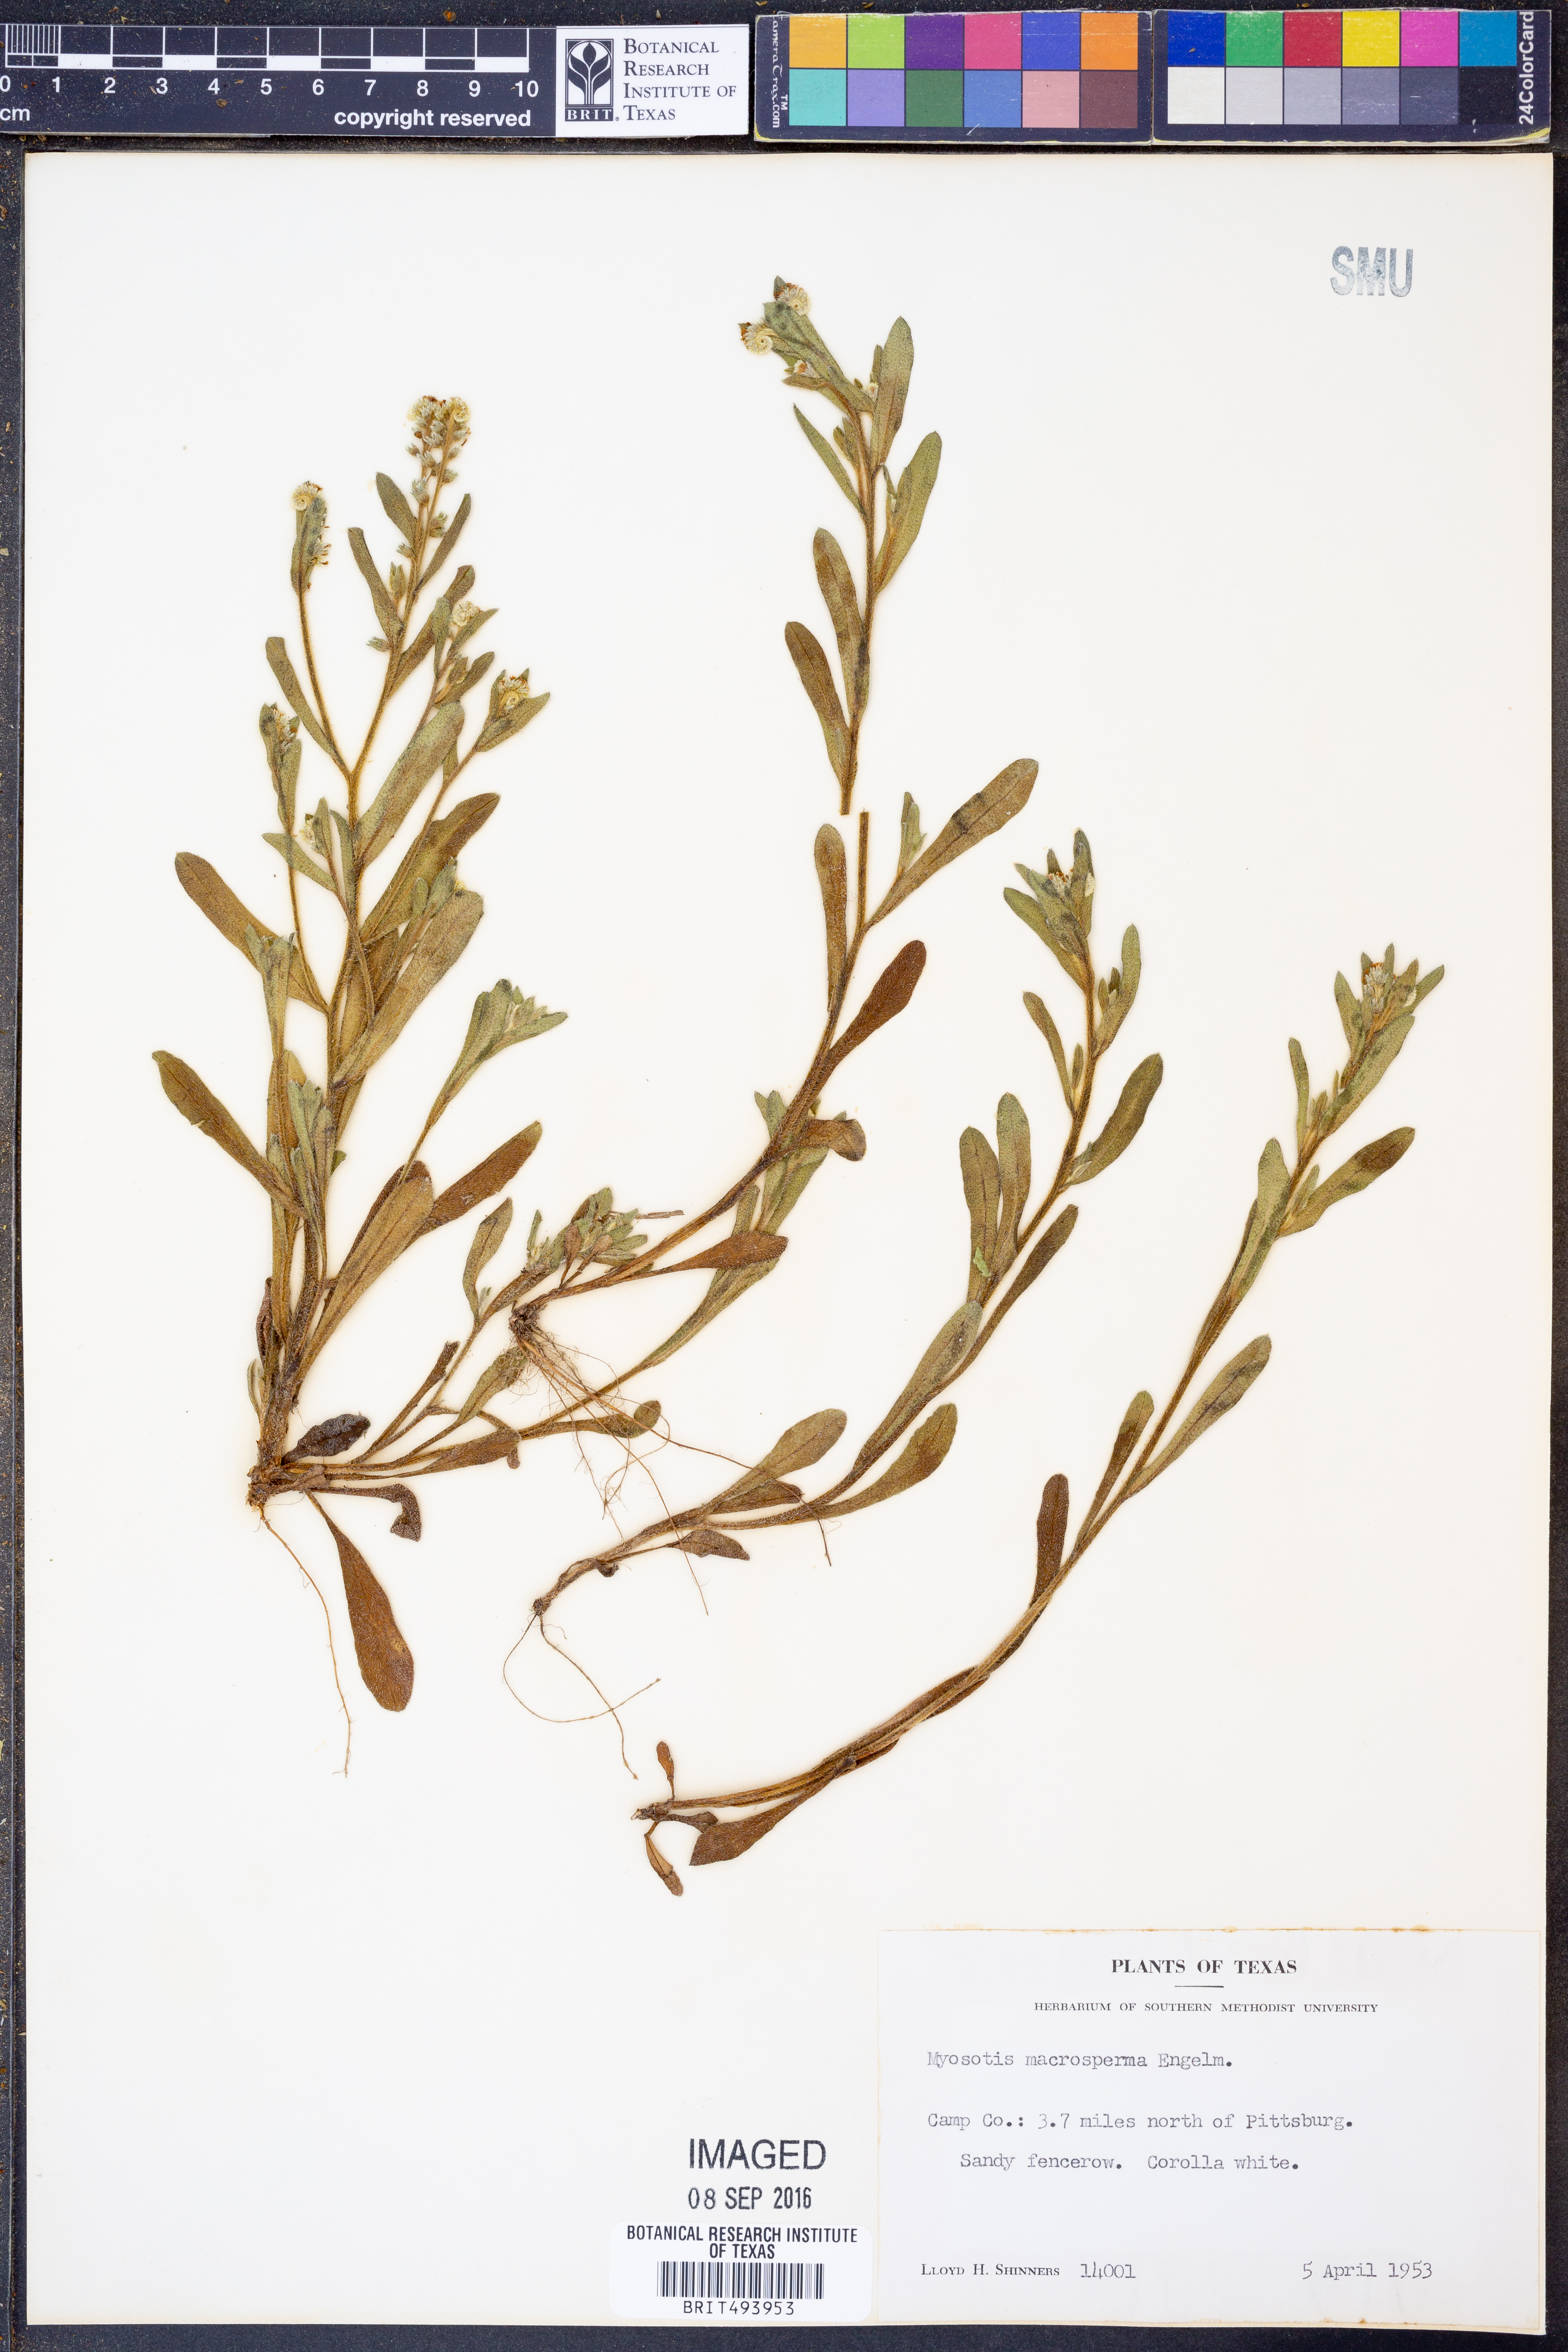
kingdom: Plantae
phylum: Tracheophyta
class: Magnoliopsida
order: Boraginales
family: Boraginaceae
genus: Myosotis
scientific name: Myosotis macrosperma
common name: Large-seed forget-me-not
